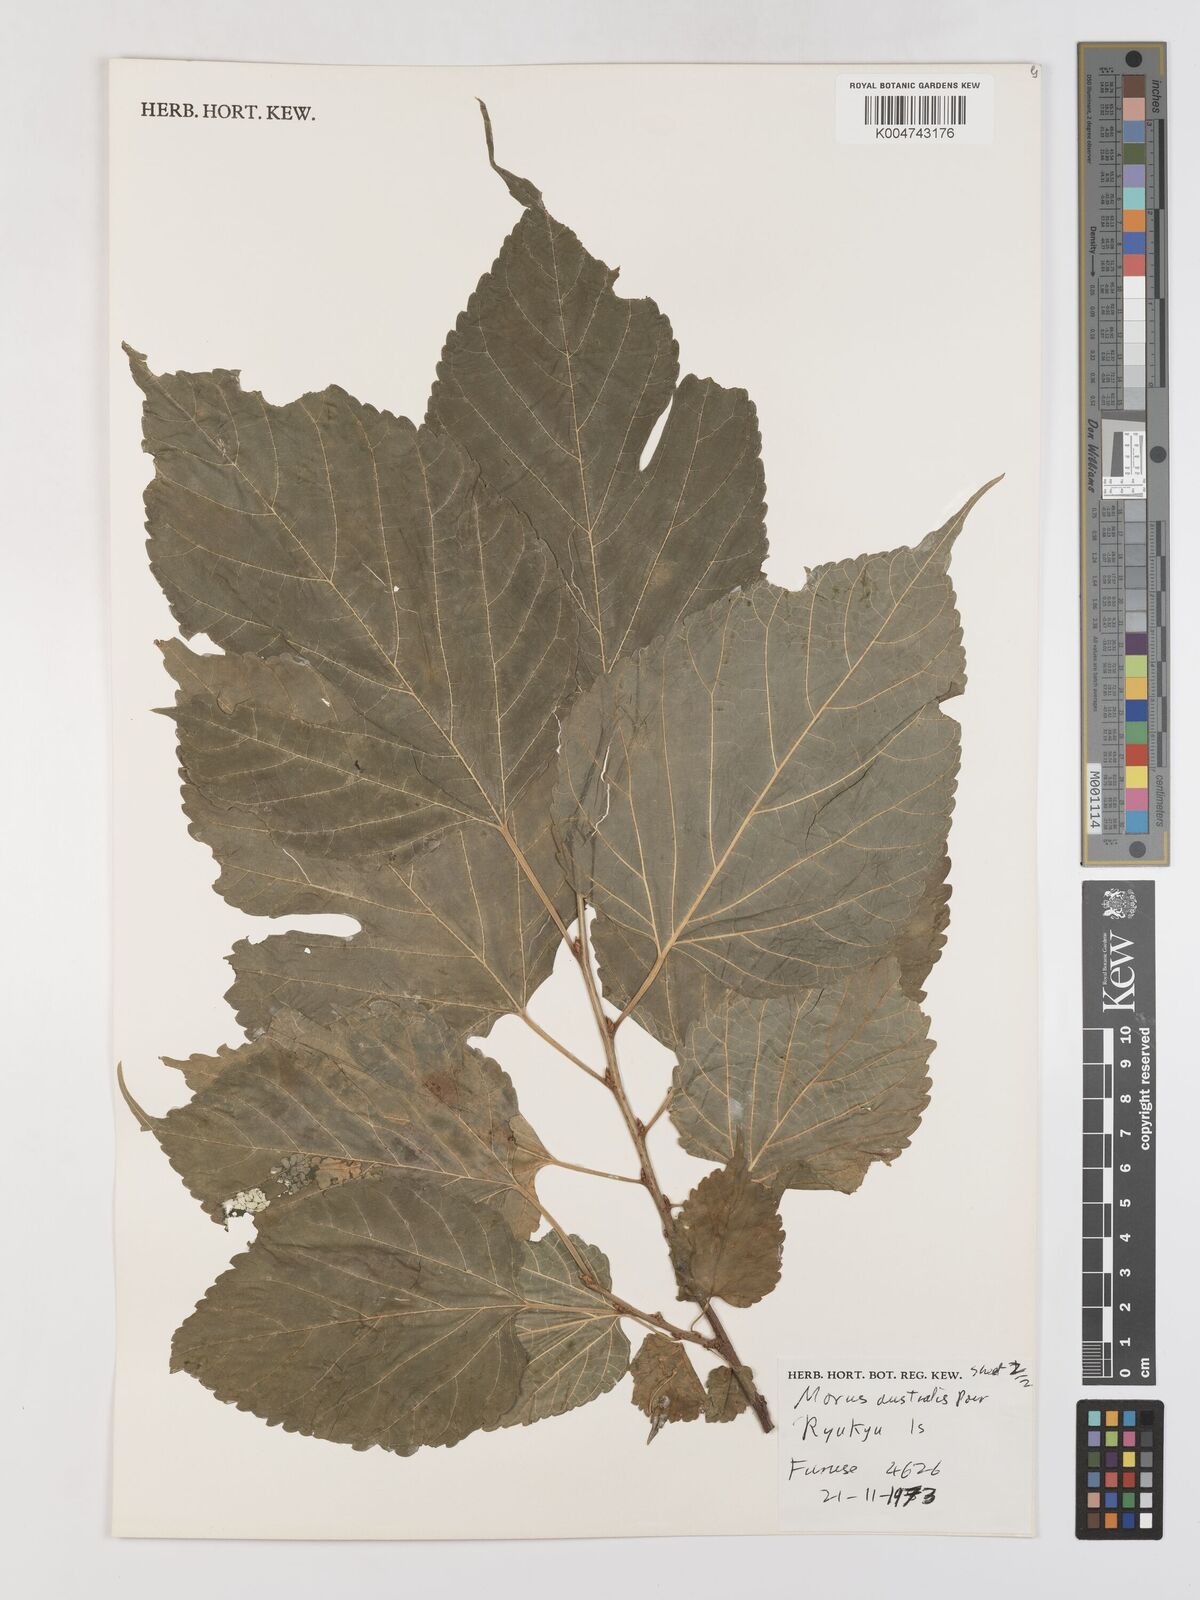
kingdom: Plantae
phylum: Tracheophyta
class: Magnoliopsida
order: Rosales
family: Moraceae
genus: Morus
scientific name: Morus indica
